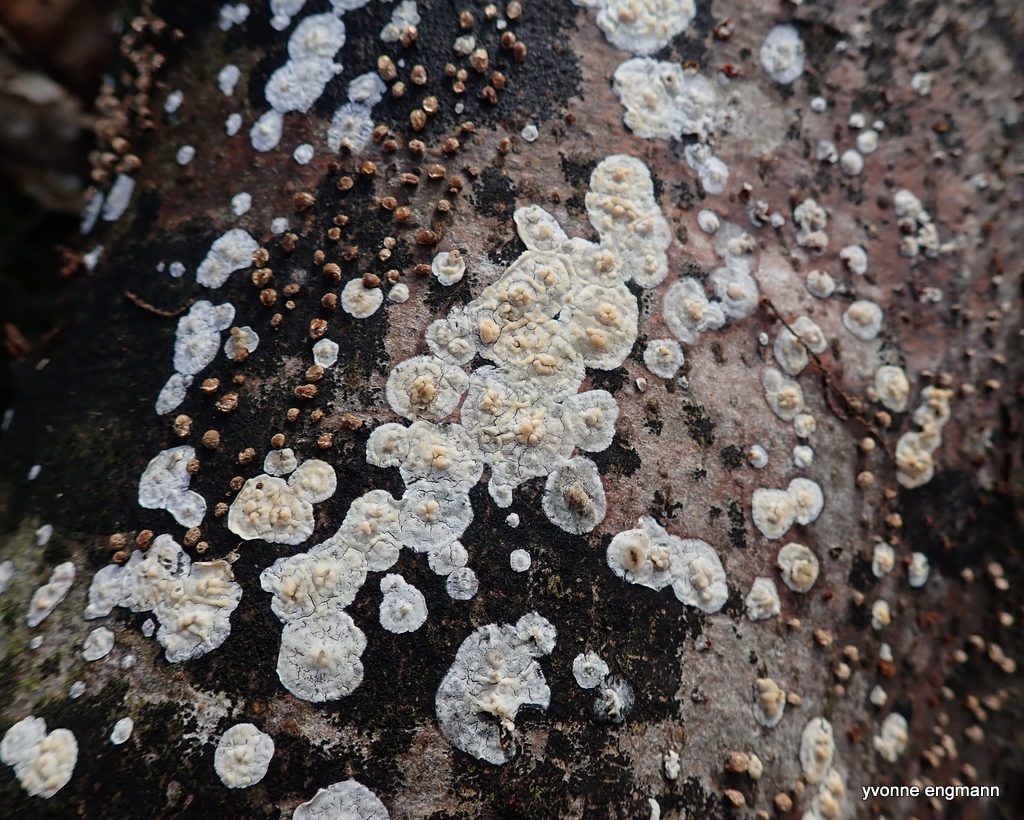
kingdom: Fungi
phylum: Basidiomycota
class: Agaricomycetes
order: Agaricales
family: Physalacriaceae
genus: Cylindrobasidium
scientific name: Cylindrobasidium evolvens
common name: sprækkehinde
